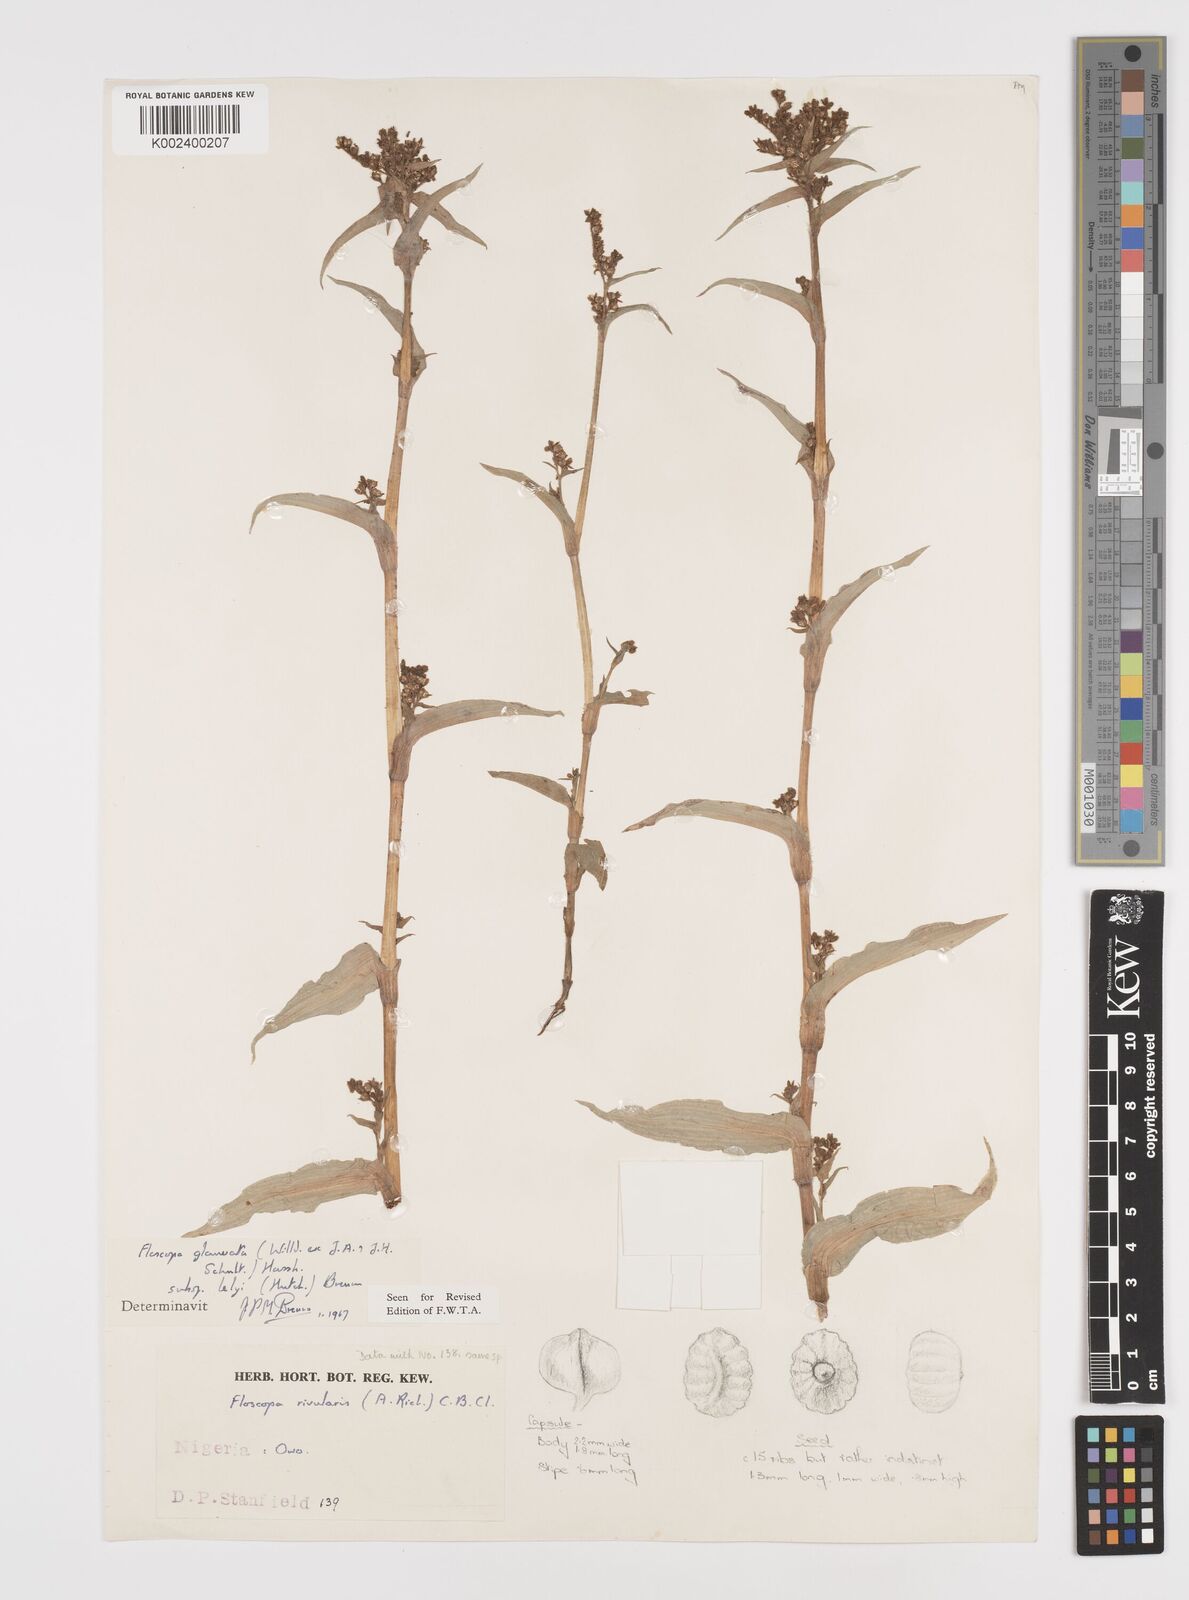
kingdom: Plantae
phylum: Tracheophyta
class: Liliopsida
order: Commelinales
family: Commelinaceae
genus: Floscopa
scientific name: Floscopa glomerata
